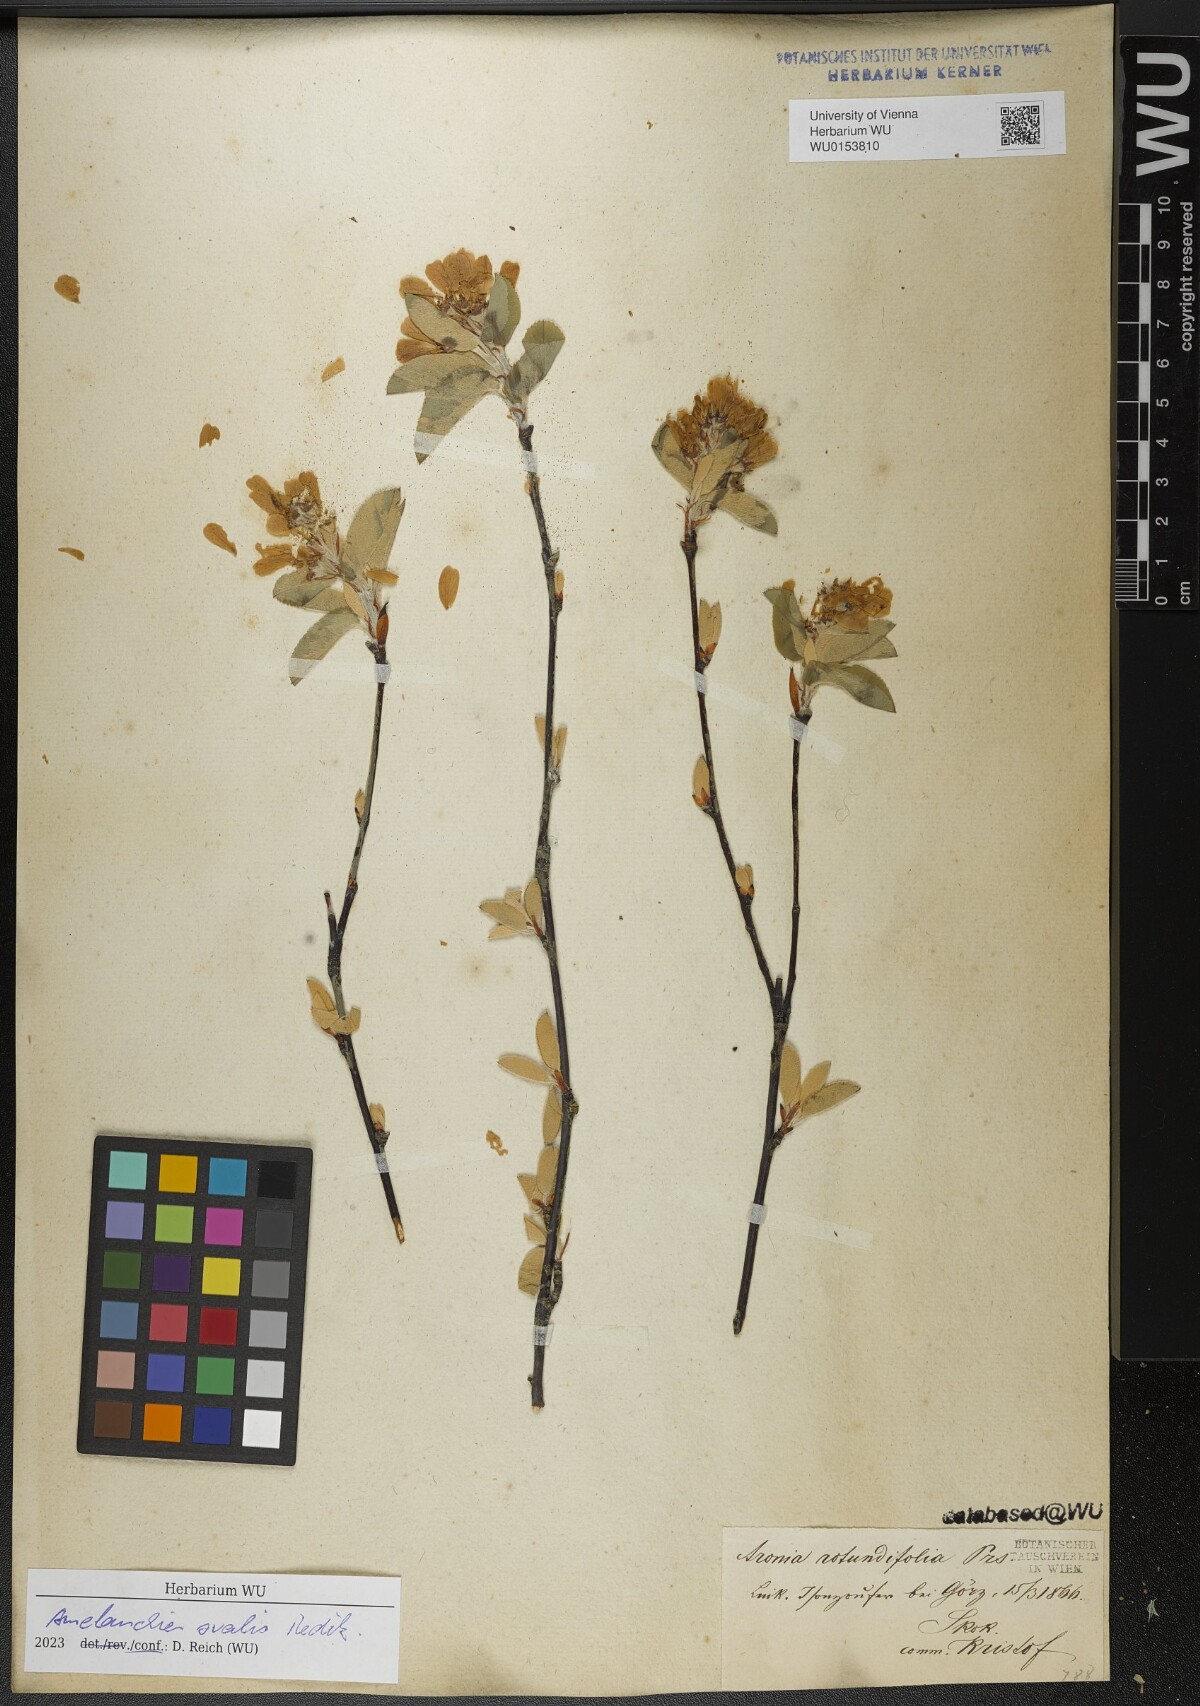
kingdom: Plantae
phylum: Tracheophyta
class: Magnoliopsida
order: Rosales
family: Rosaceae
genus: Amelanchier
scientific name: Amelanchier ovalis
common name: Serviceberry
